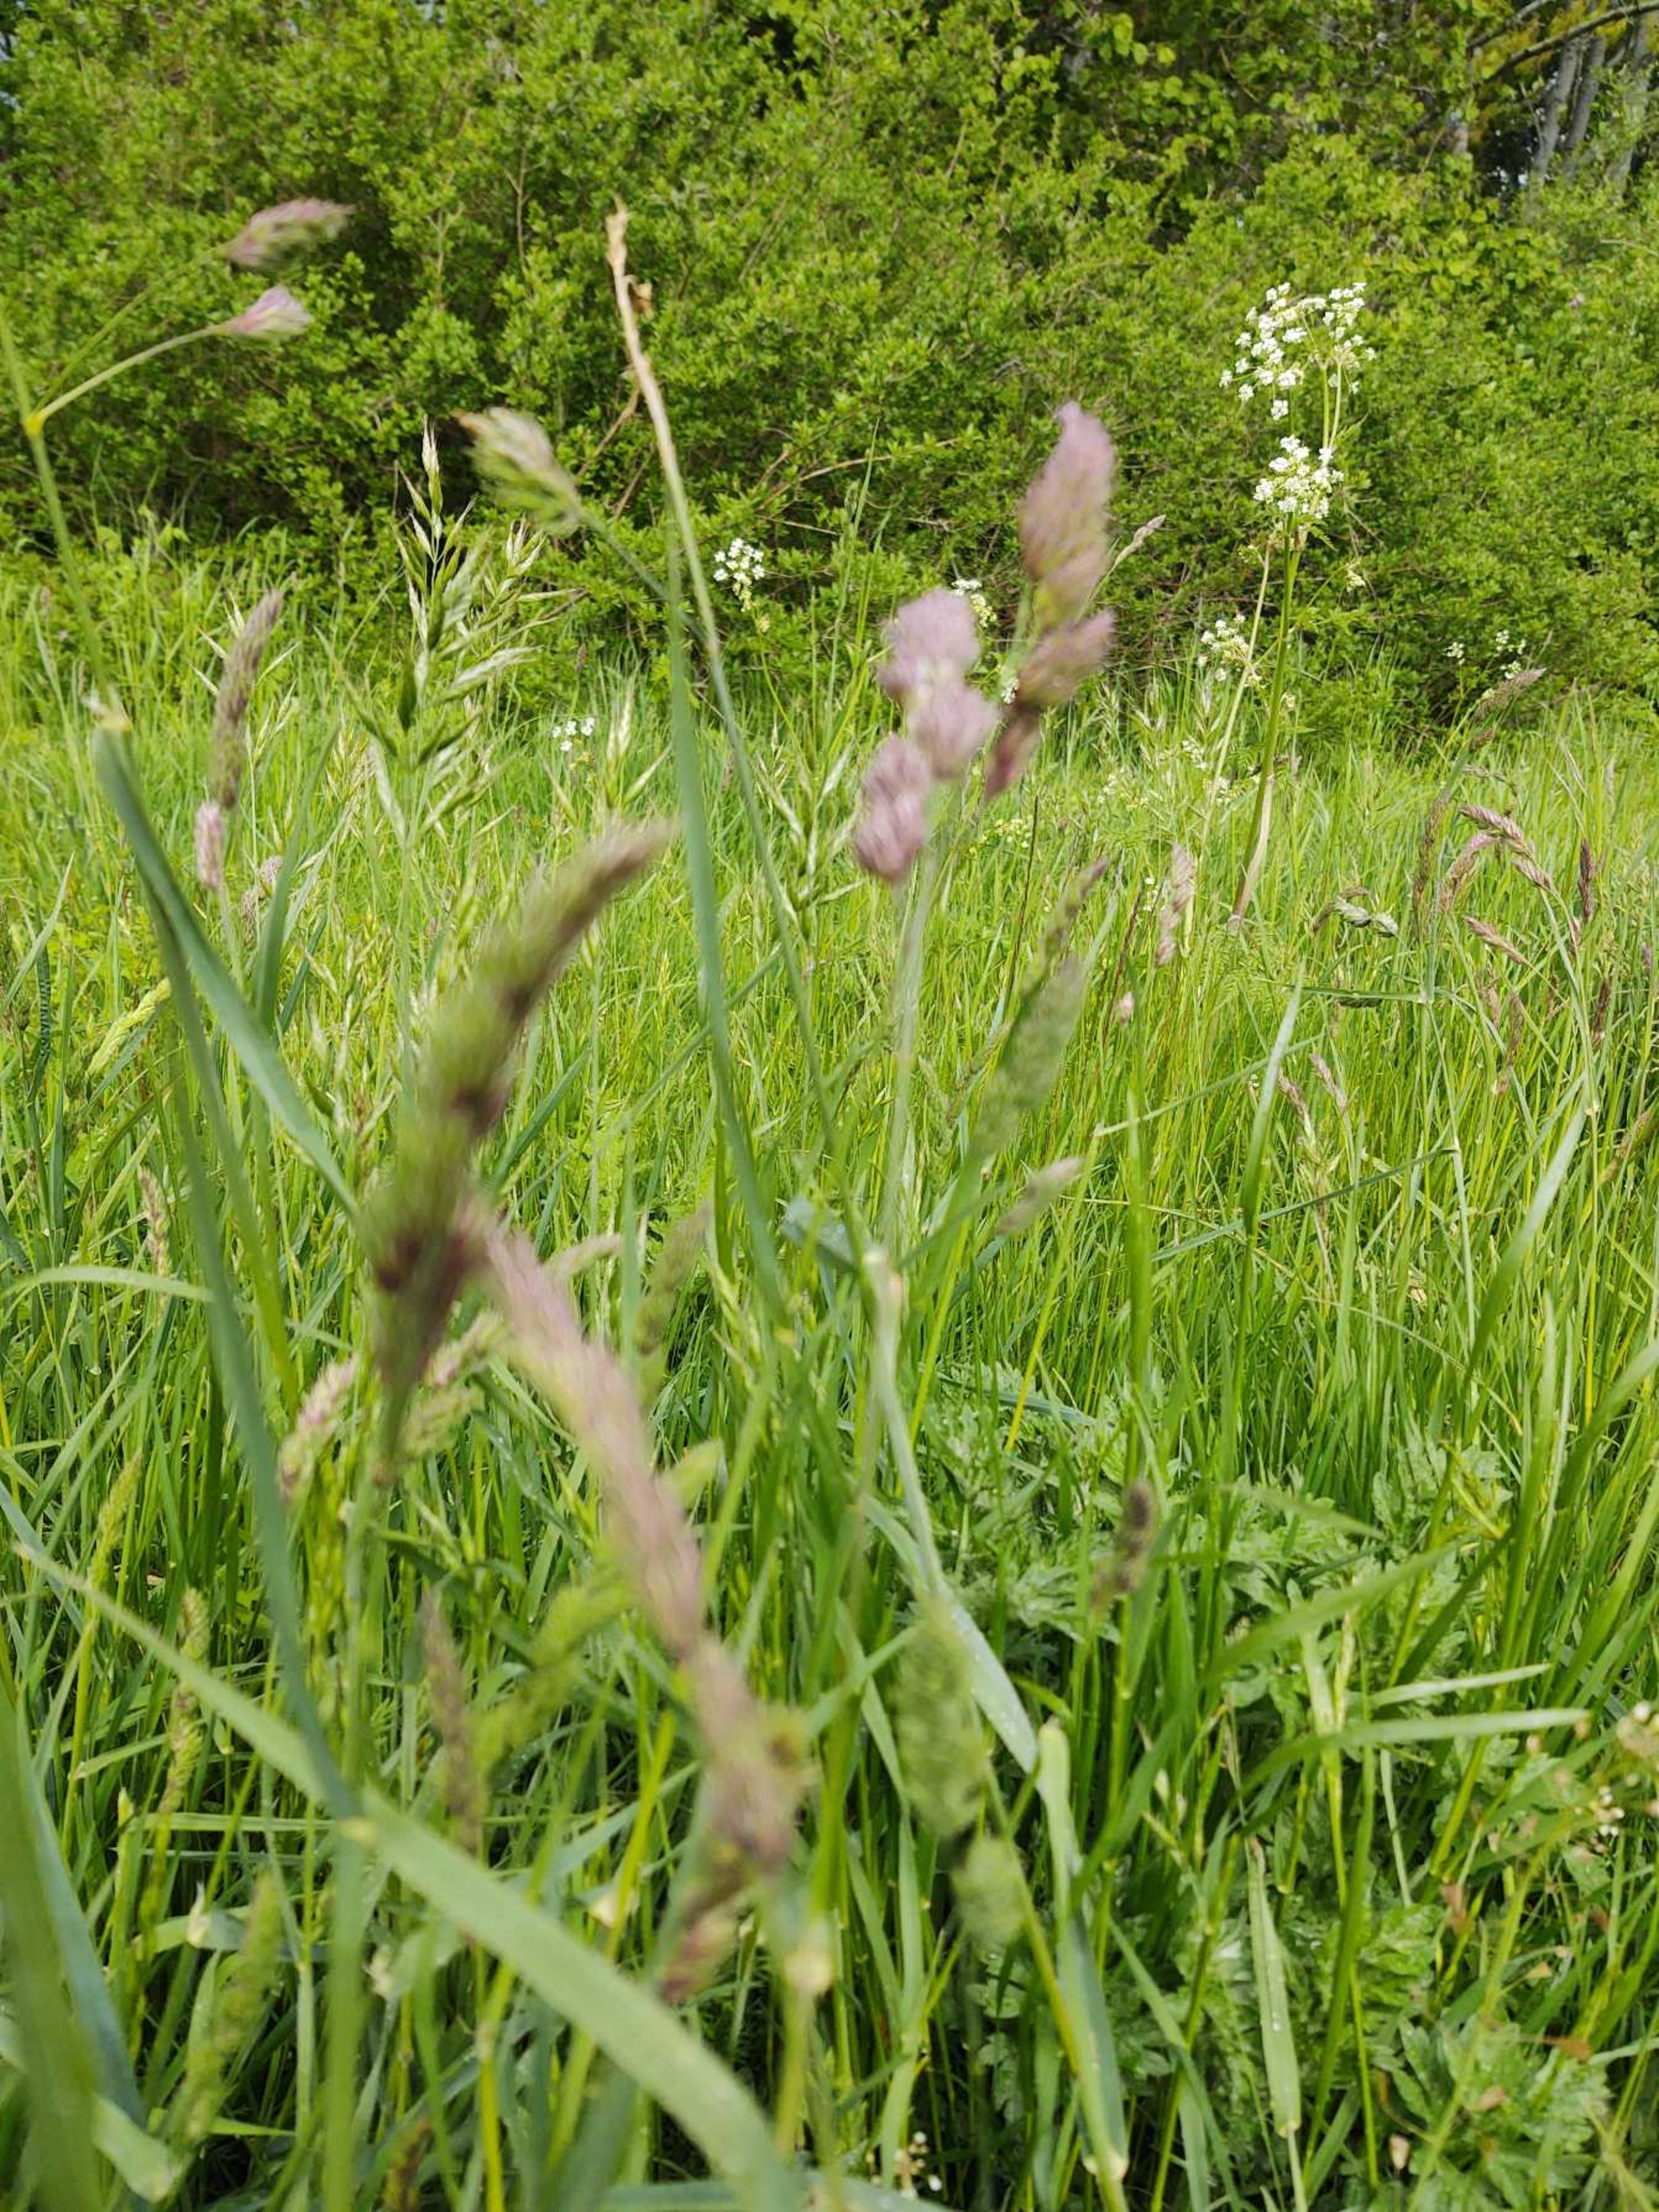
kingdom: Plantae
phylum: Tracheophyta
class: Liliopsida
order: Poales
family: Poaceae
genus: Dactylis
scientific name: Dactylis glomerata
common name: Almindelig hundegræs
